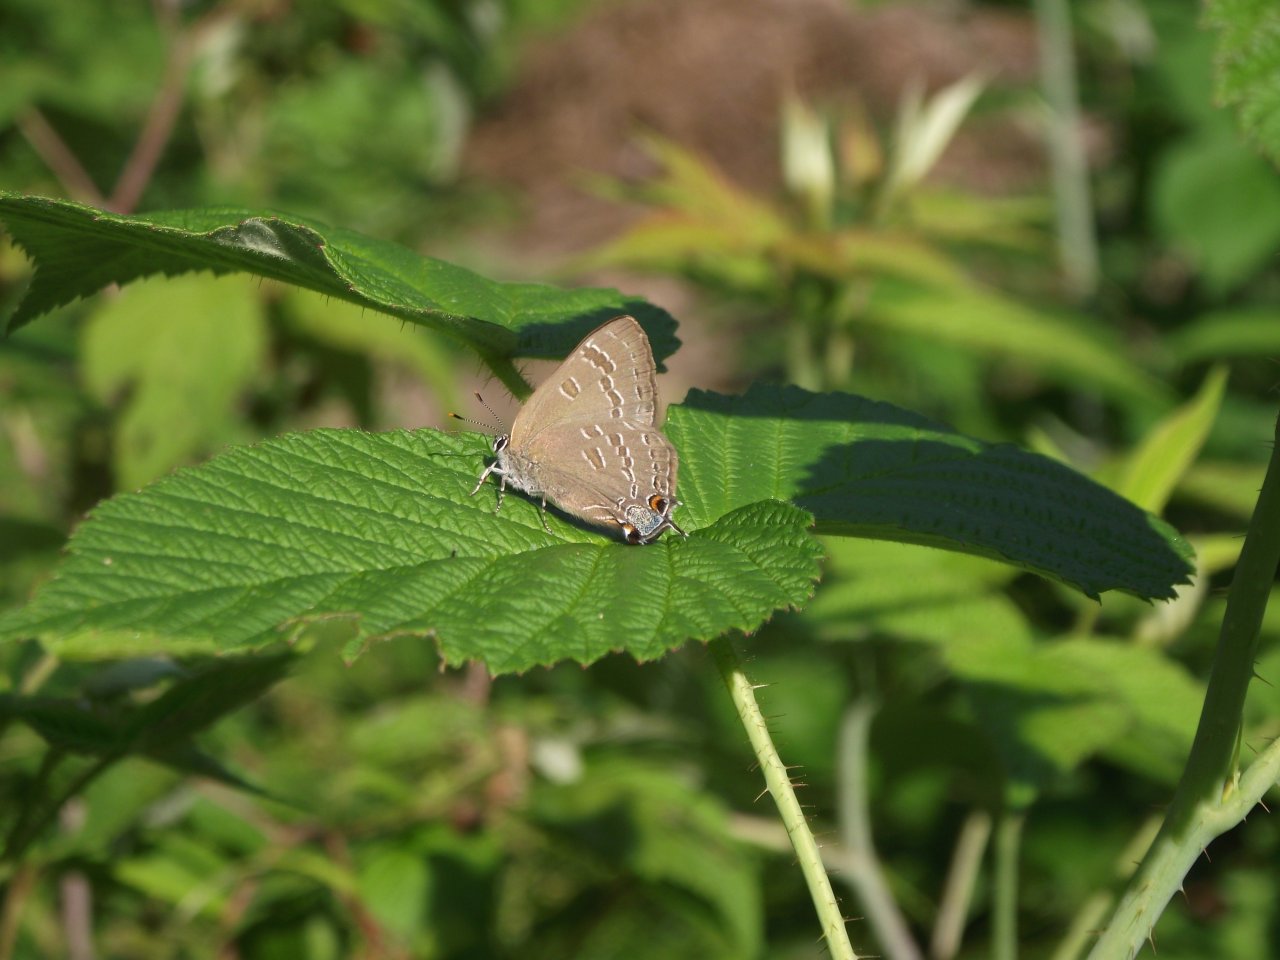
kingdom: Animalia
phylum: Arthropoda
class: Insecta
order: Lepidoptera
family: Lycaenidae
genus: Strymon
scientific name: Strymon caryaevorus
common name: Hickory Hairstreak
